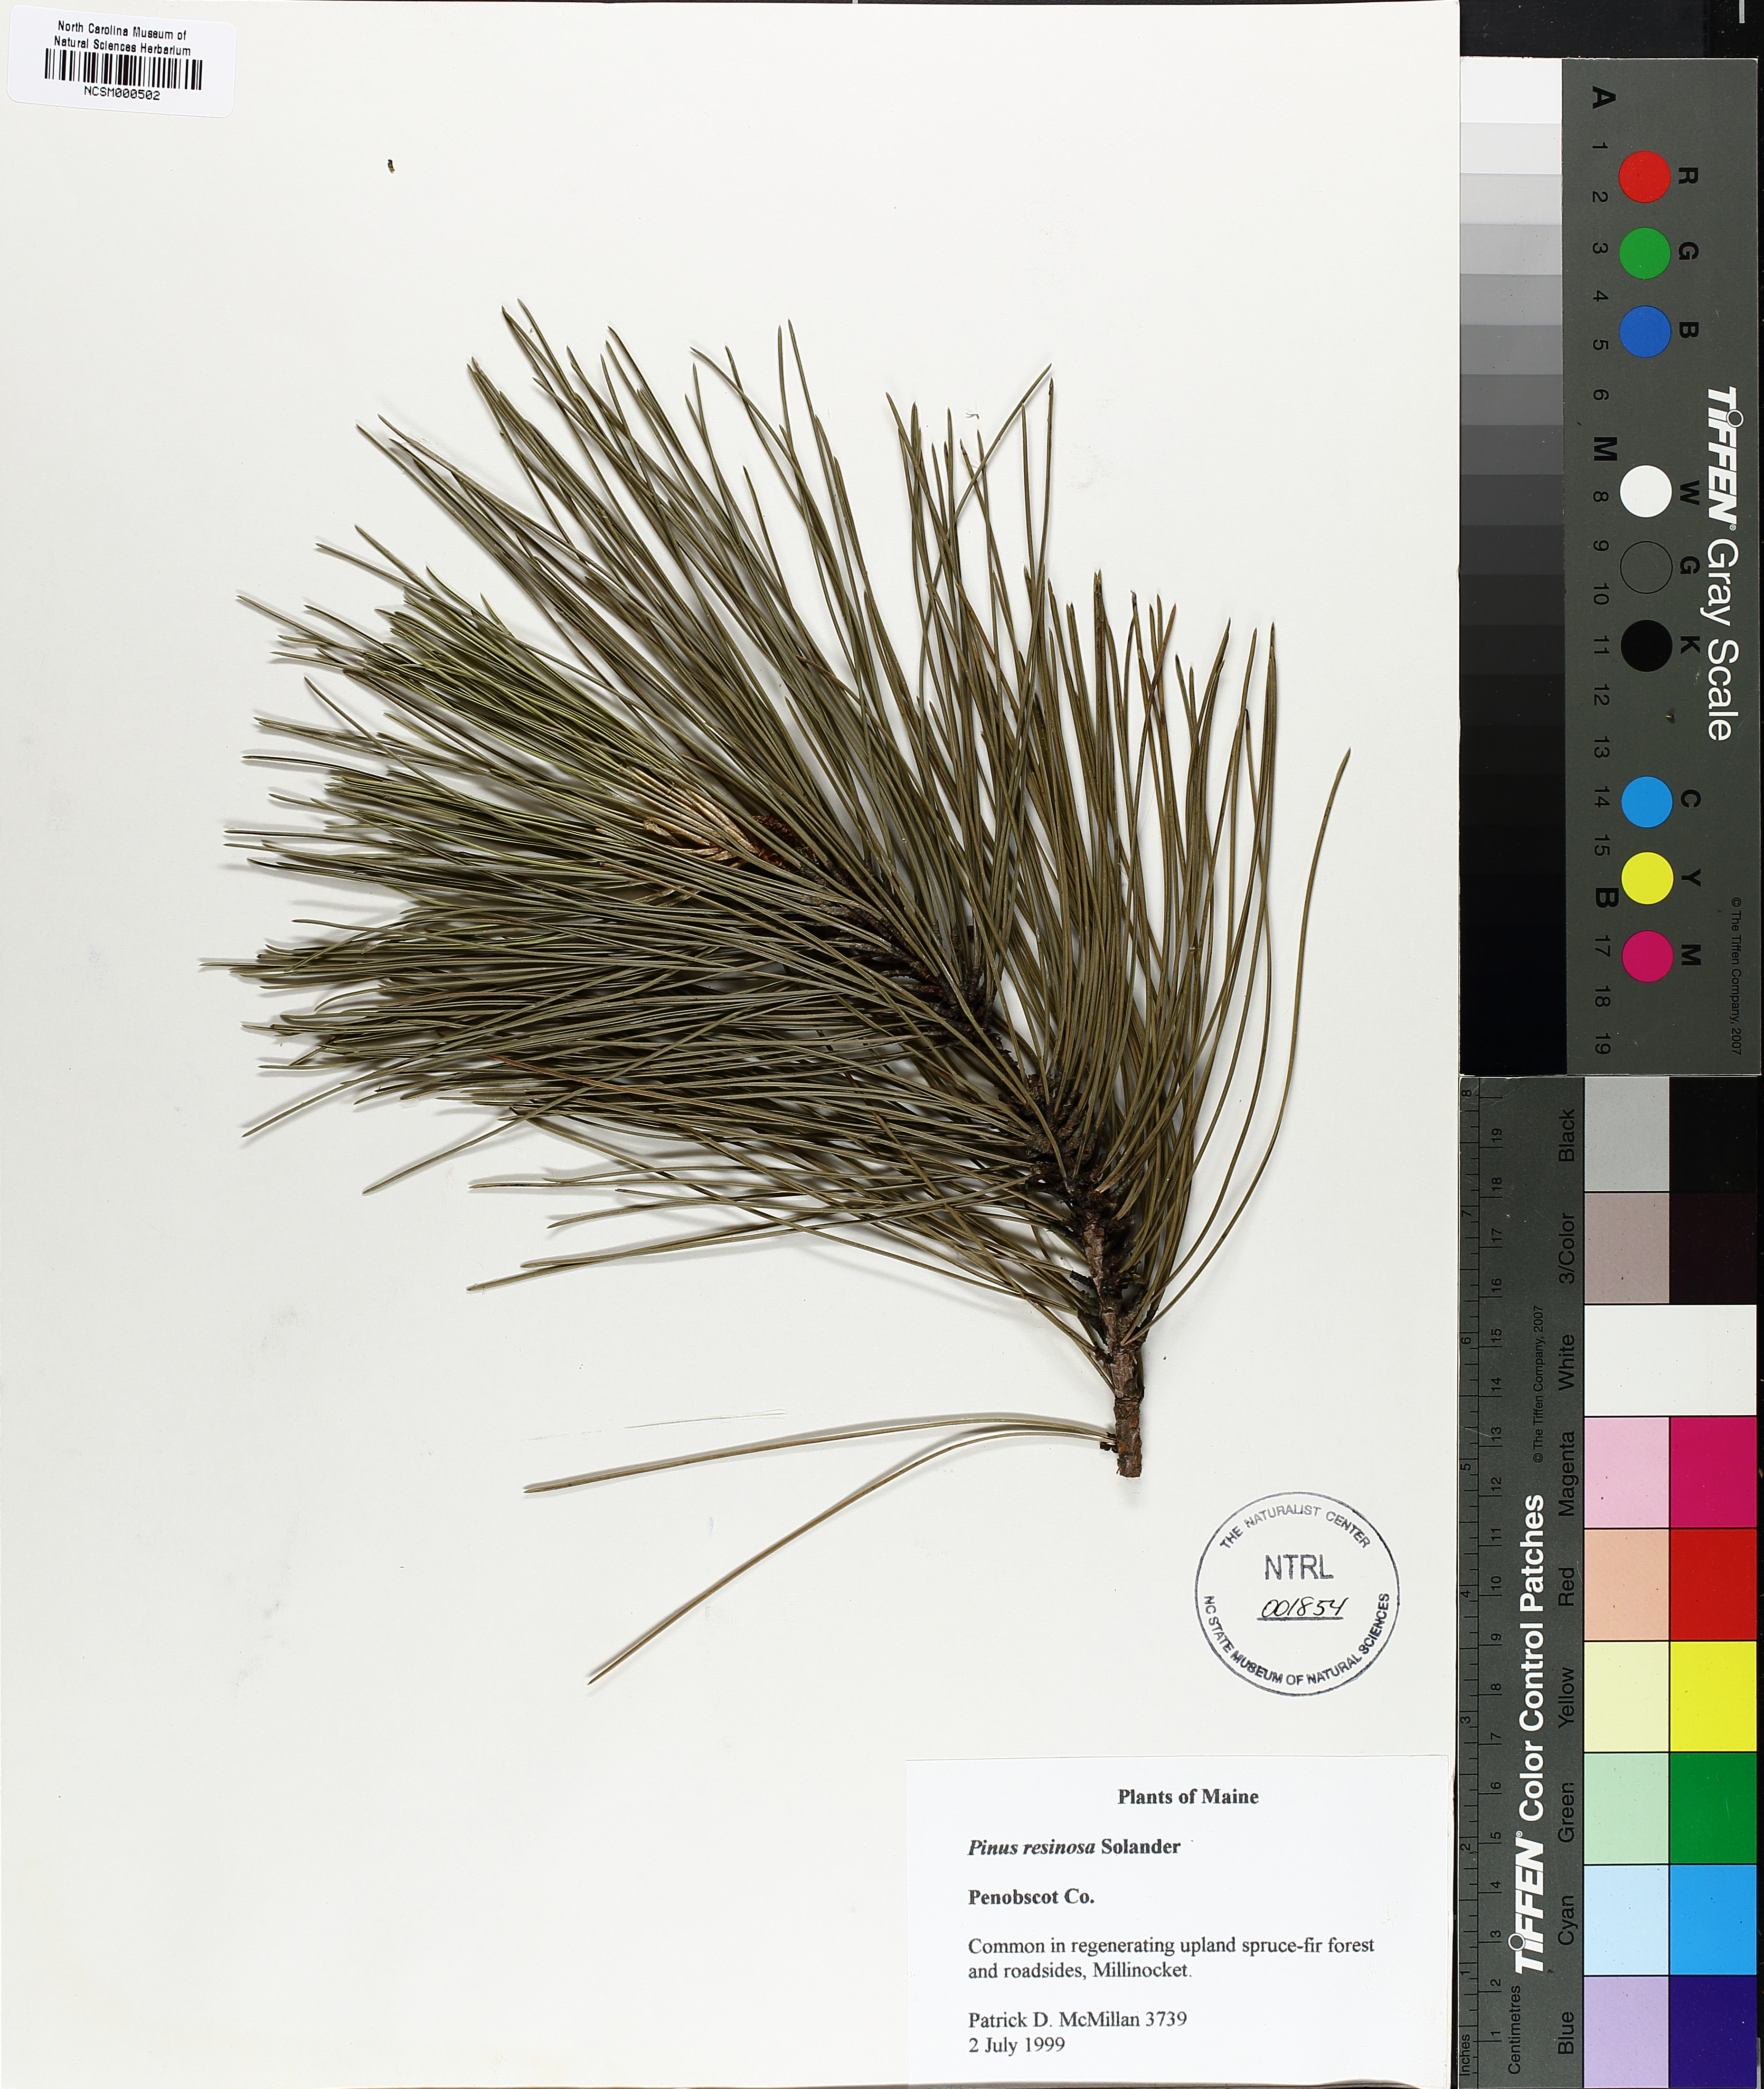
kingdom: Plantae
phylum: Tracheophyta
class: Pinopsida
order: Pinales
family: Pinaceae
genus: Pinus
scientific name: Pinus resinosa
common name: Norway pine
